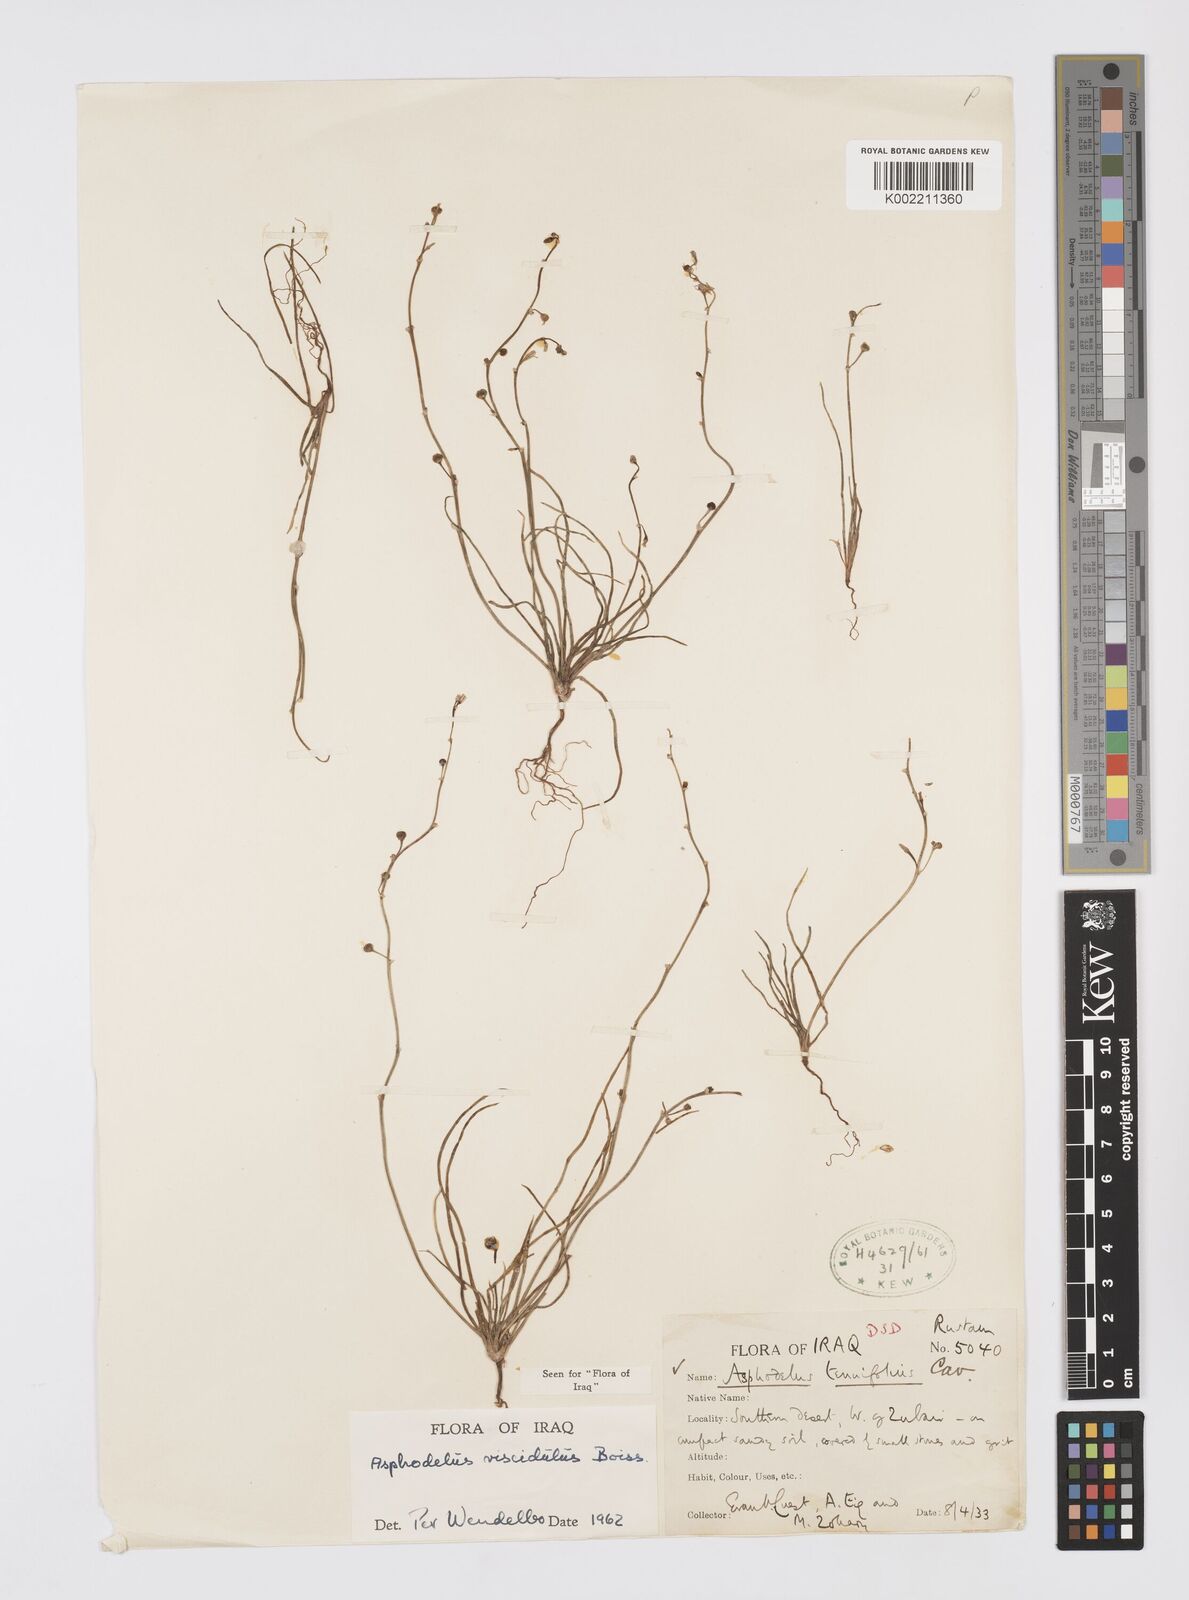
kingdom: Plantae
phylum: Tracheophyta
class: Liliopsida
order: Asparagales
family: Asphodelaceae
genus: Asphodelus
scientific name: Asphodelus viscidulus
